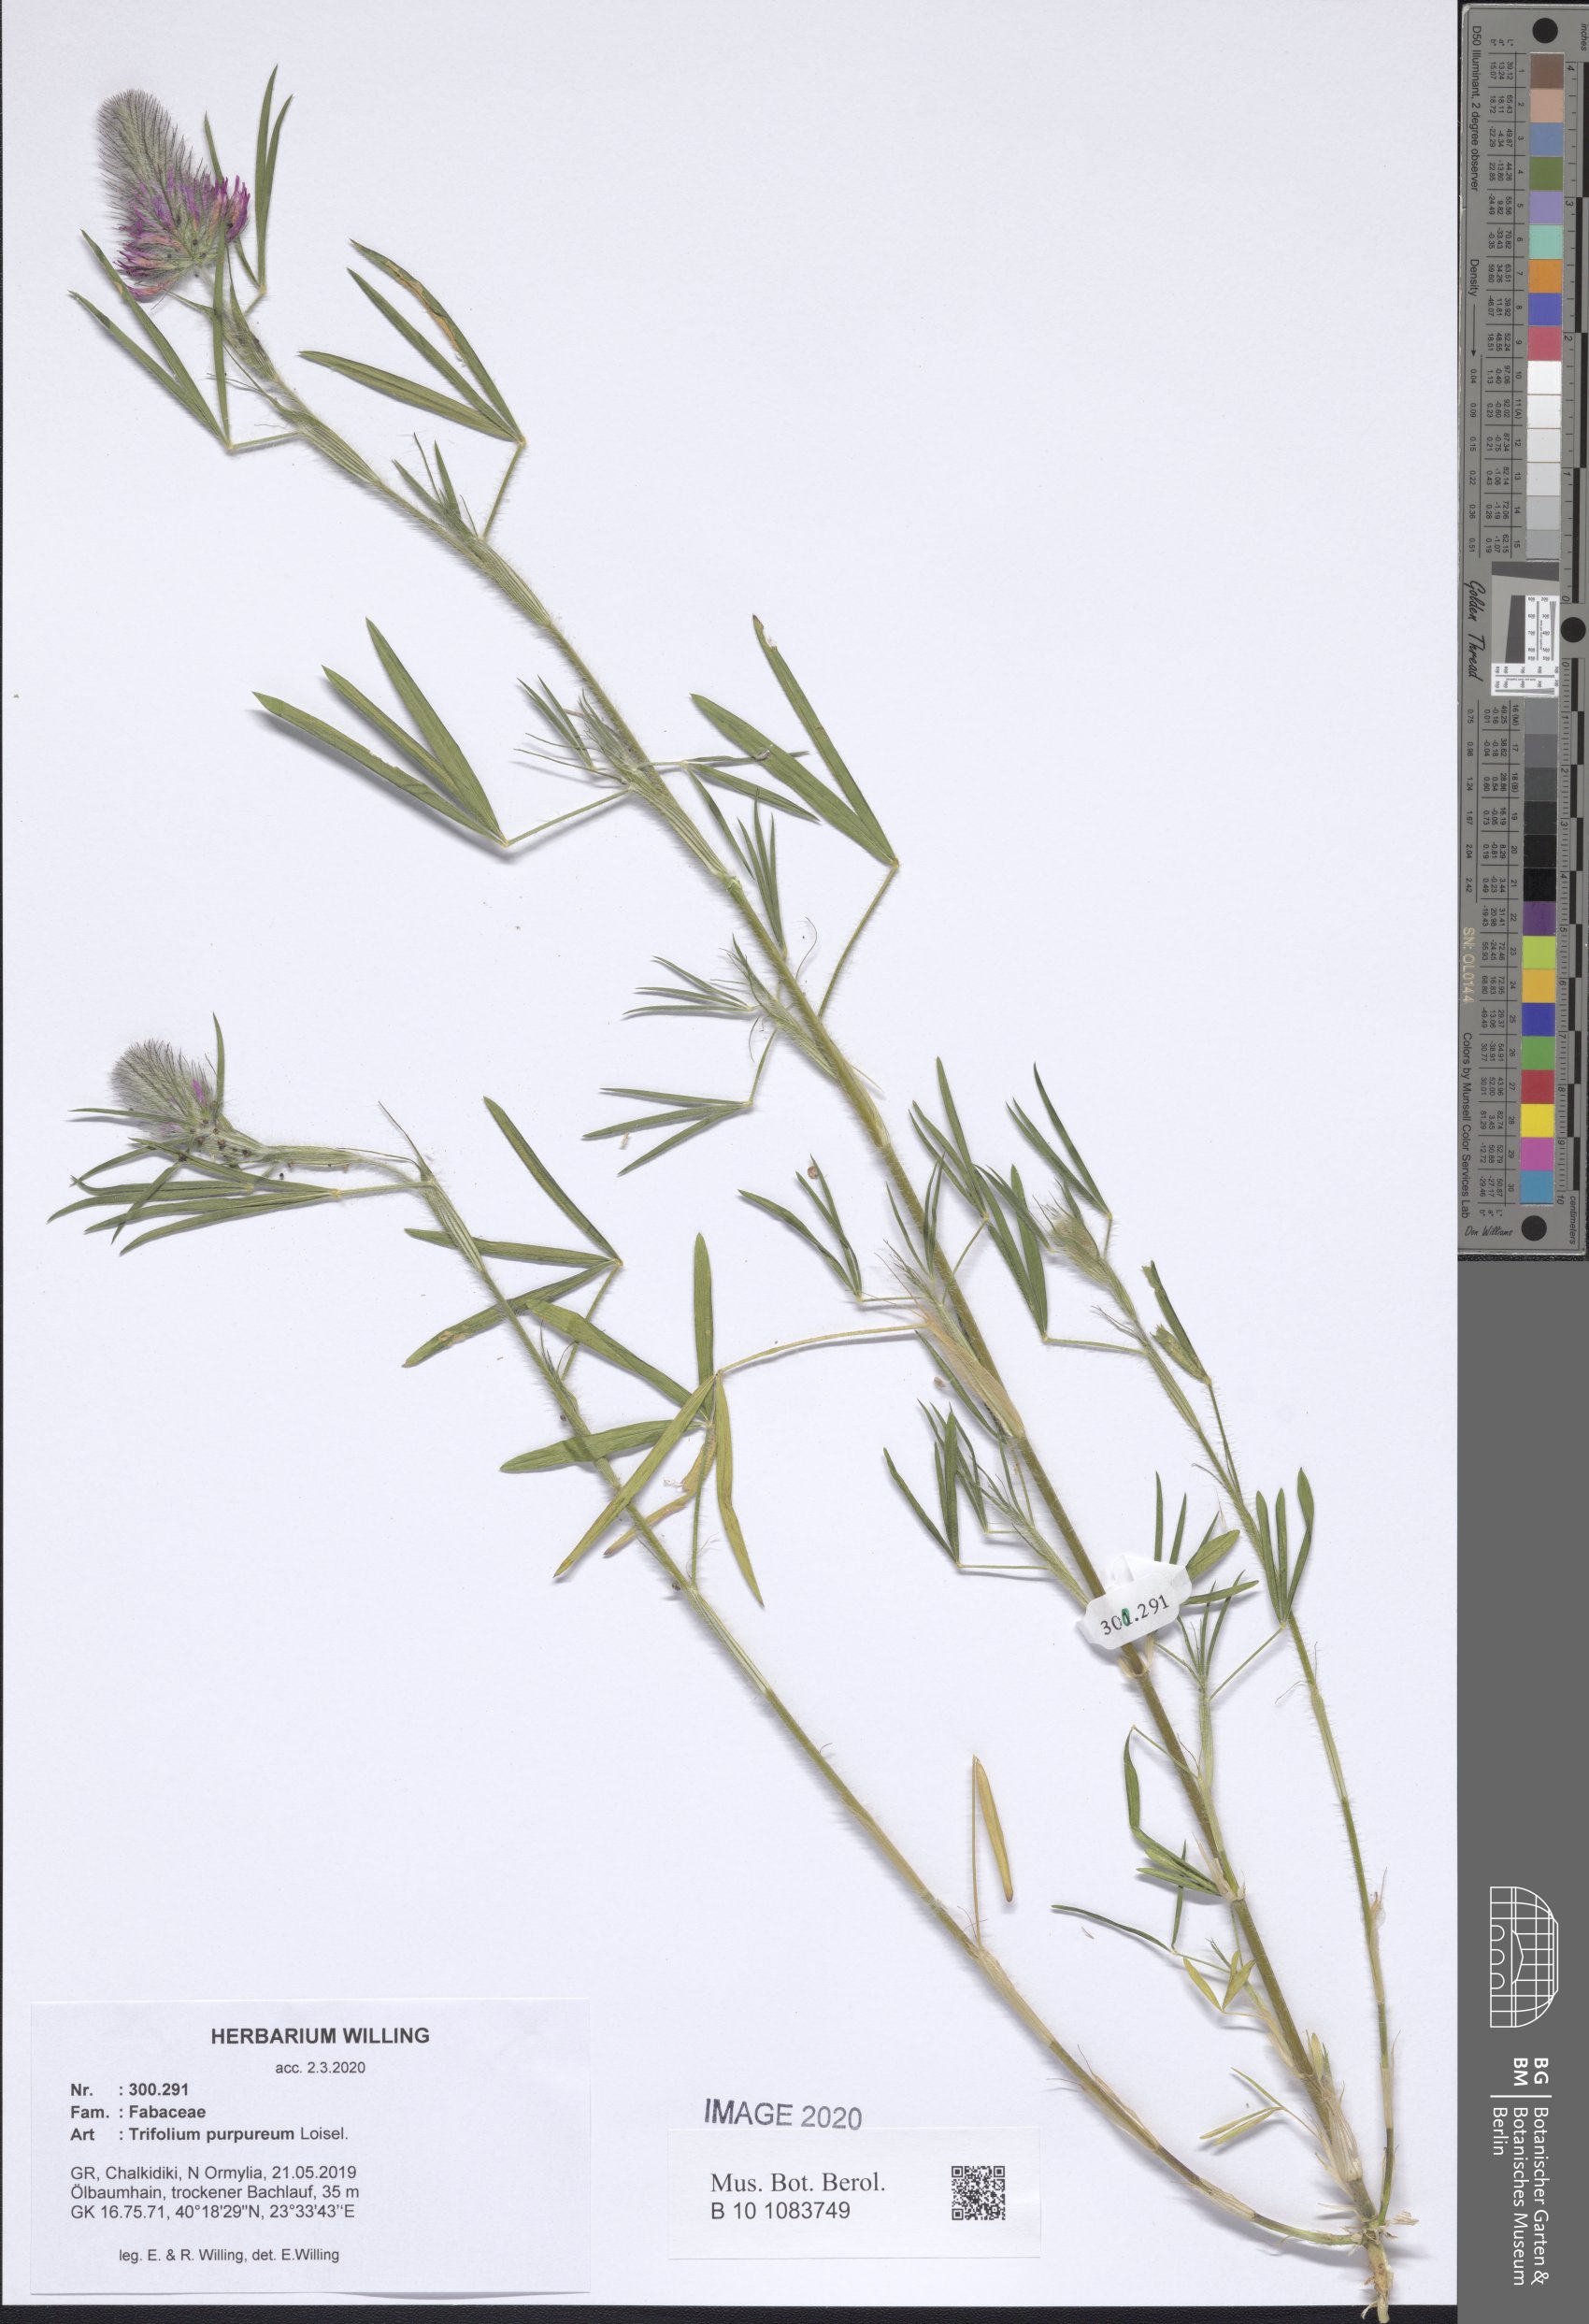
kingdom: Plantae
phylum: Tracheophyta
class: Magnoliopsida
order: Fabales
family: Fabaceae
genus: Trifolium
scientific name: Trifolium purpureum
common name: Purple clover
